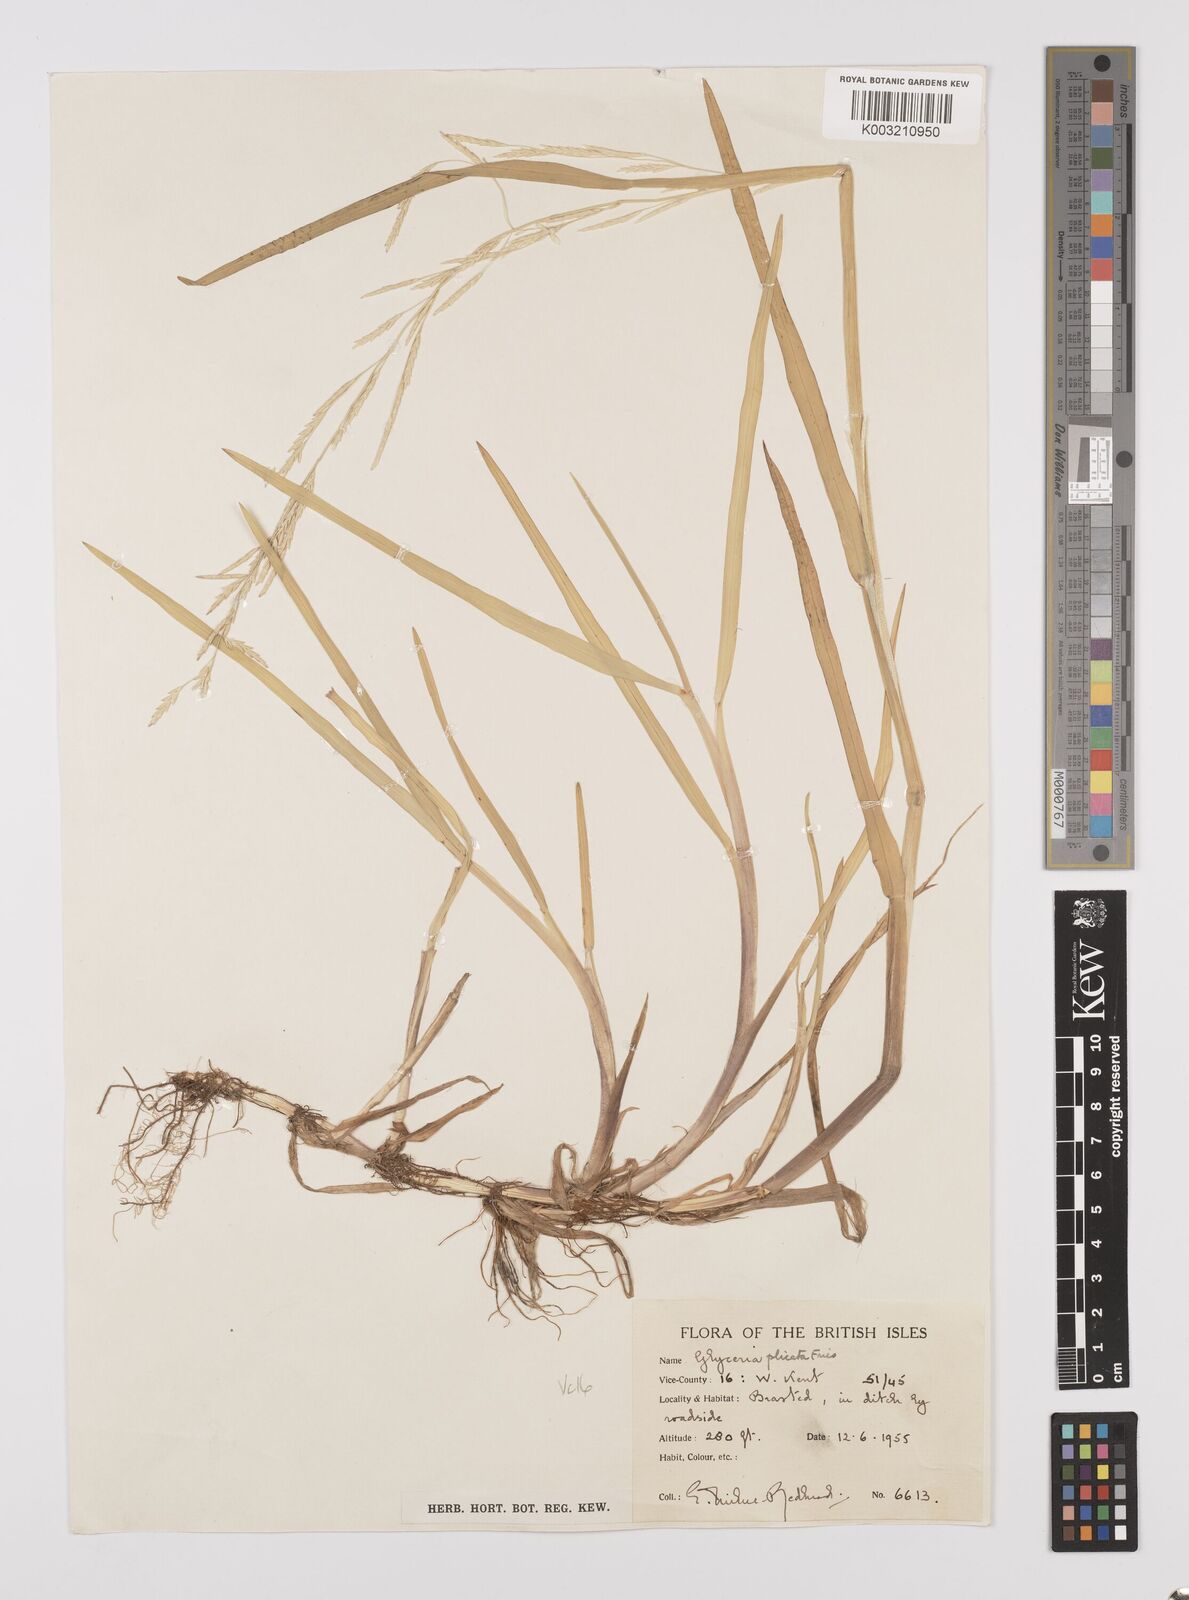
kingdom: Plantae
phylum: Tracheophyta
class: Liliopsida
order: Poales
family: Poaceae
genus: Glyceria
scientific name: Glyceria notata
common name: Plicate sweet-grass
